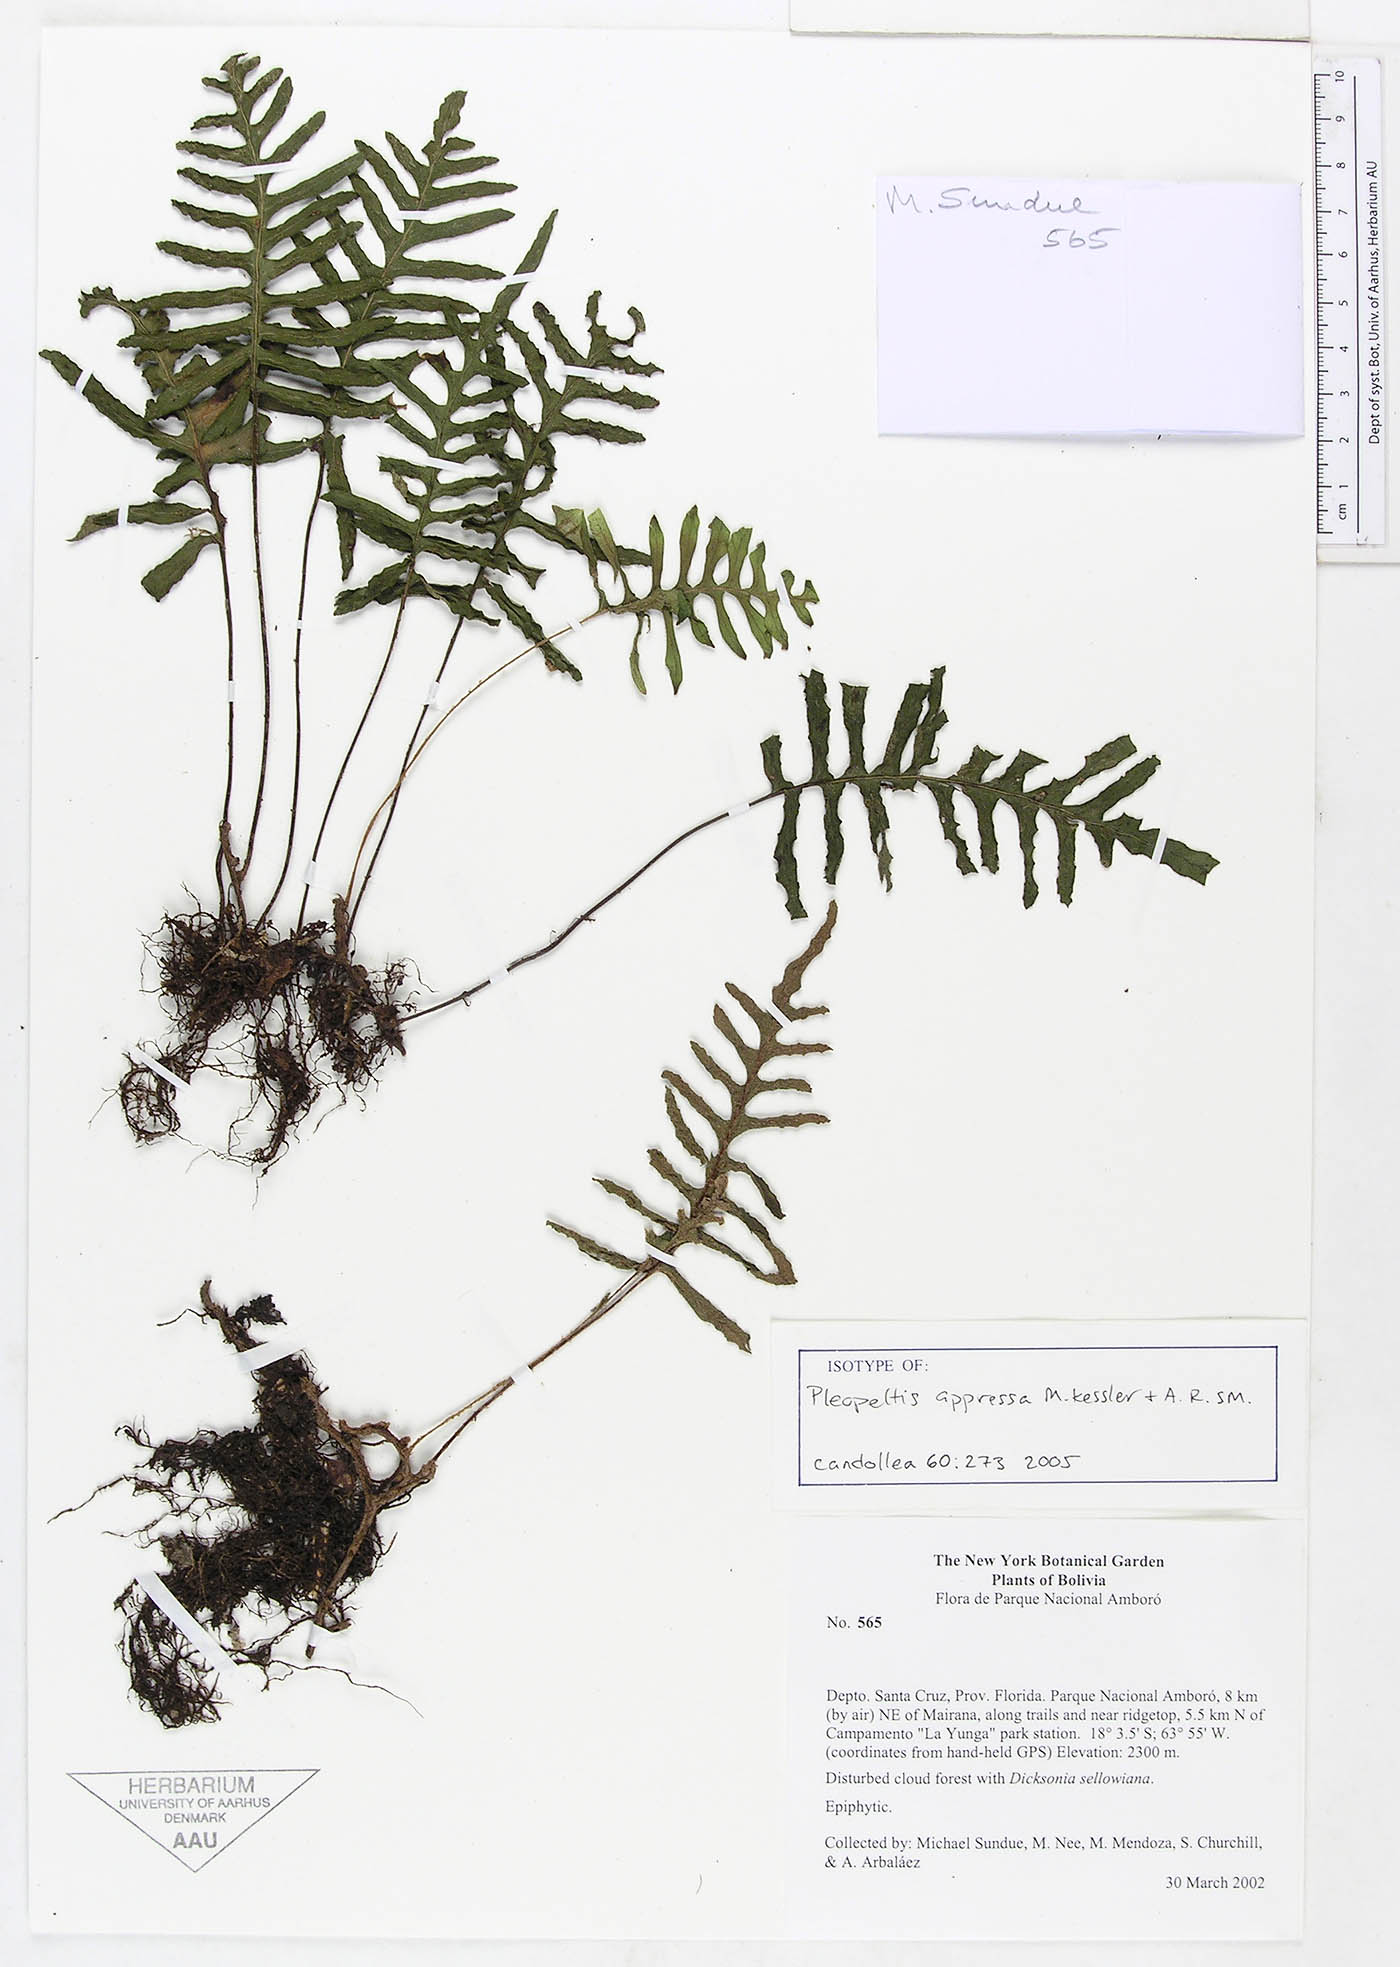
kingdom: Plantae
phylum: Tracheophyta
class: Polypodiopsida
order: Polypodiales
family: Polypodiaceae
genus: Pleopeltis
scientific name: Pleopeltis appressa
